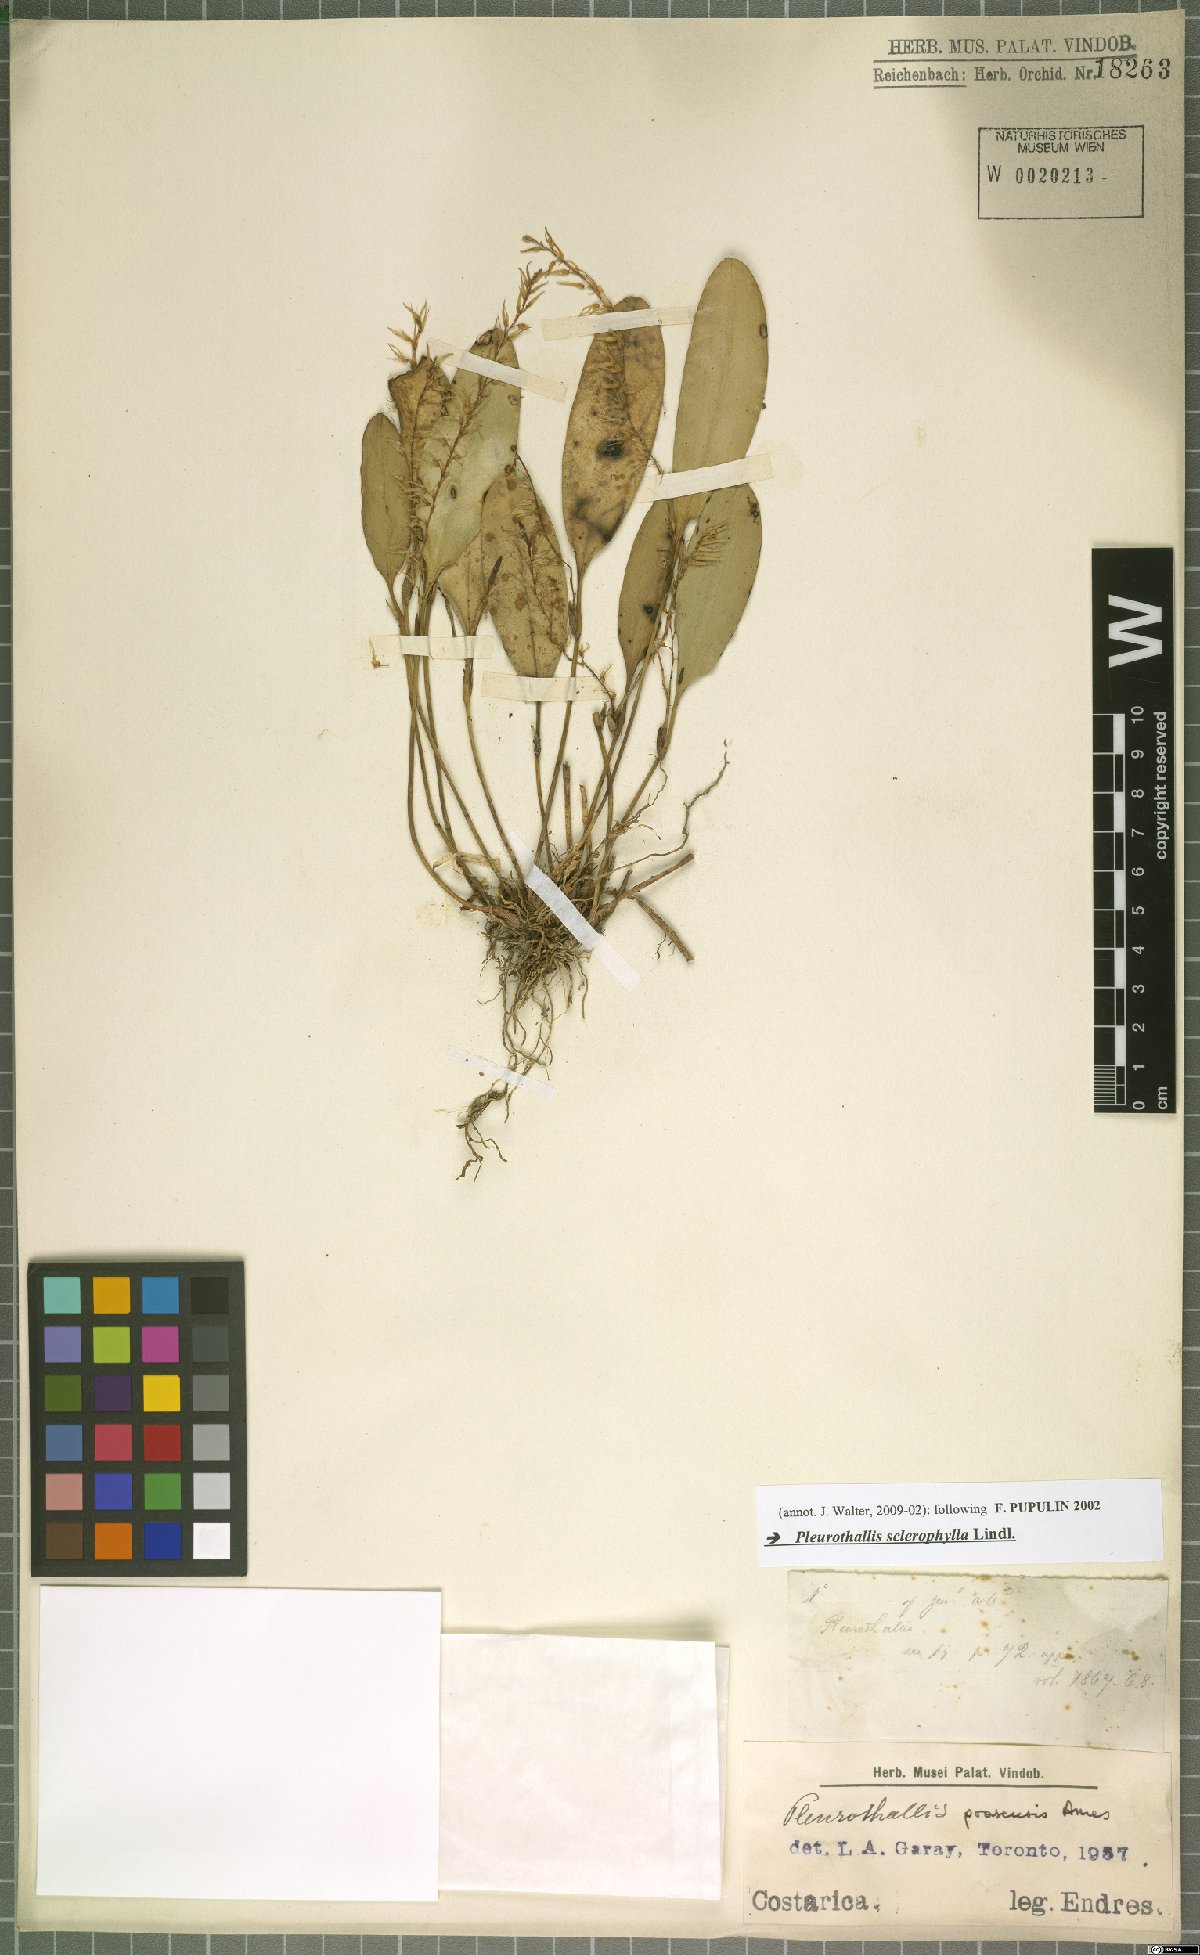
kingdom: Plantae
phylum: Tracheophyta
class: Liliopsida
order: Asparagales
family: Orchidaceae
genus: Stelis
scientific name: Stelis sclerophylla
